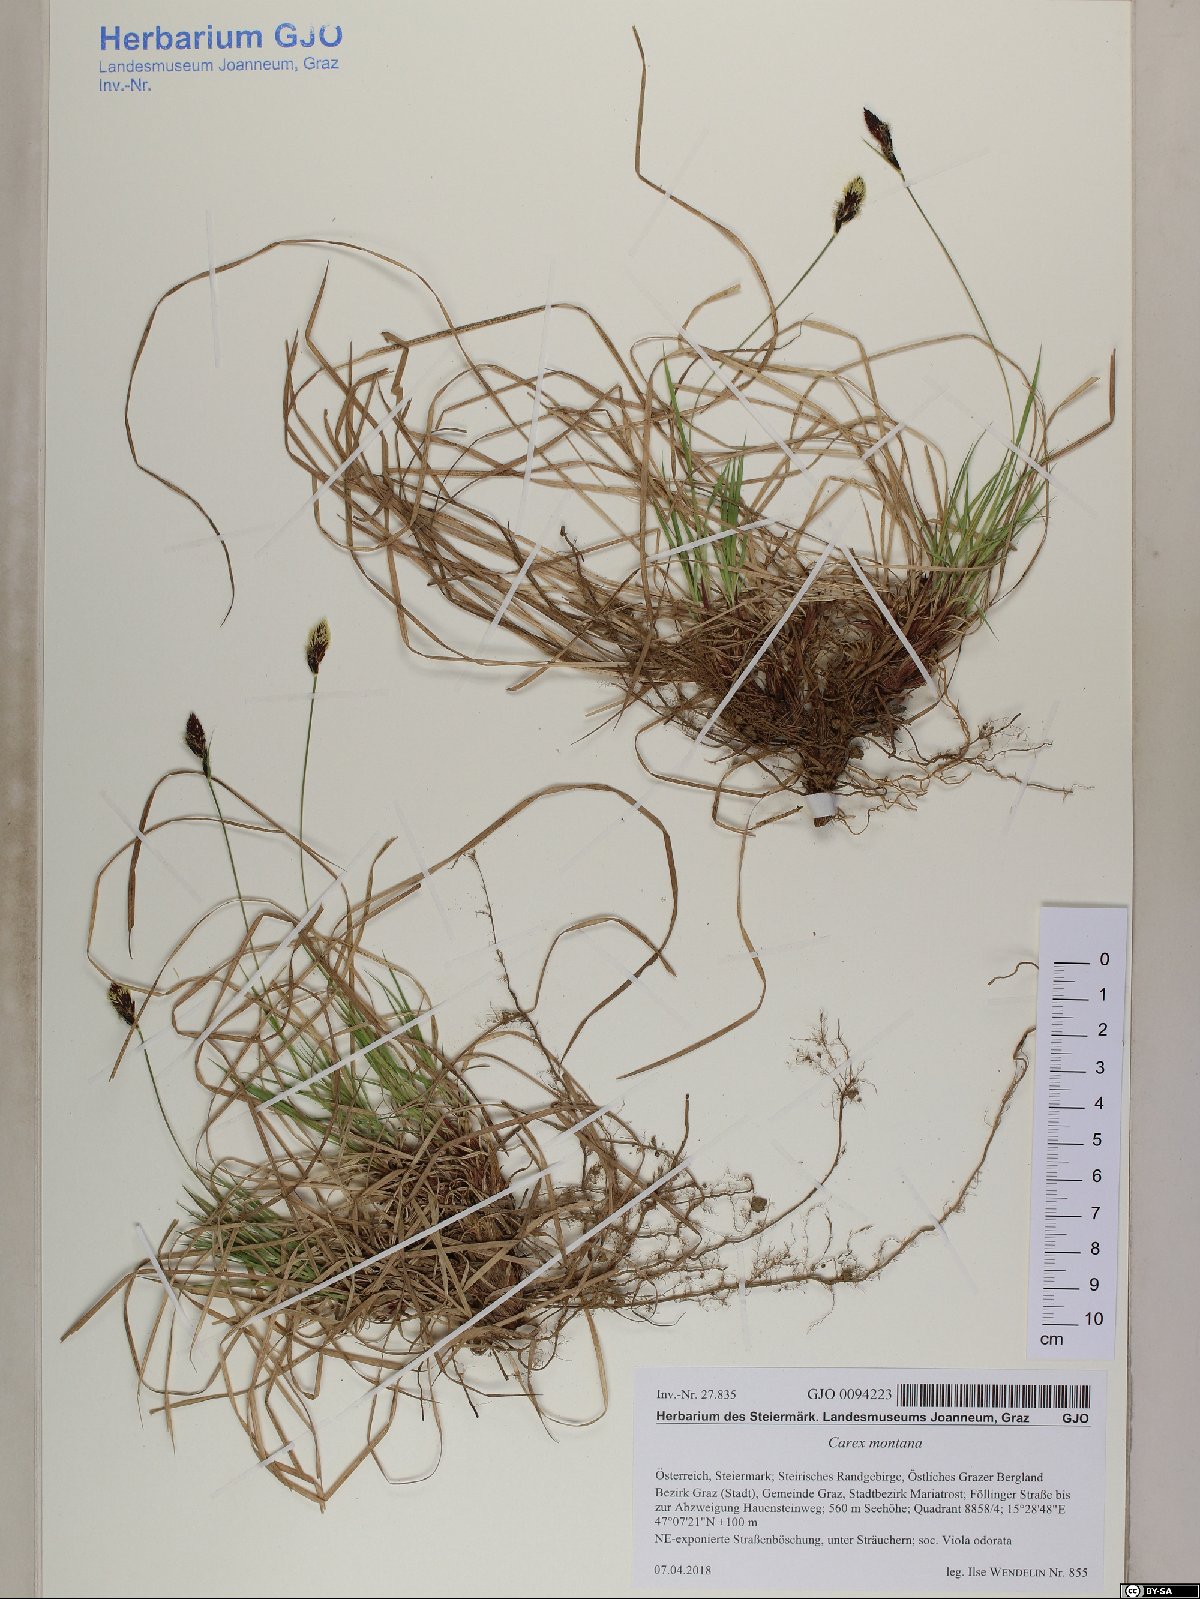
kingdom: Plantae
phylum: Tracheophyta
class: Liliopsida
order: Poales
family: Cyperaceae
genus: Carex
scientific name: Carex montana
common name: Soft-leaved sedge
